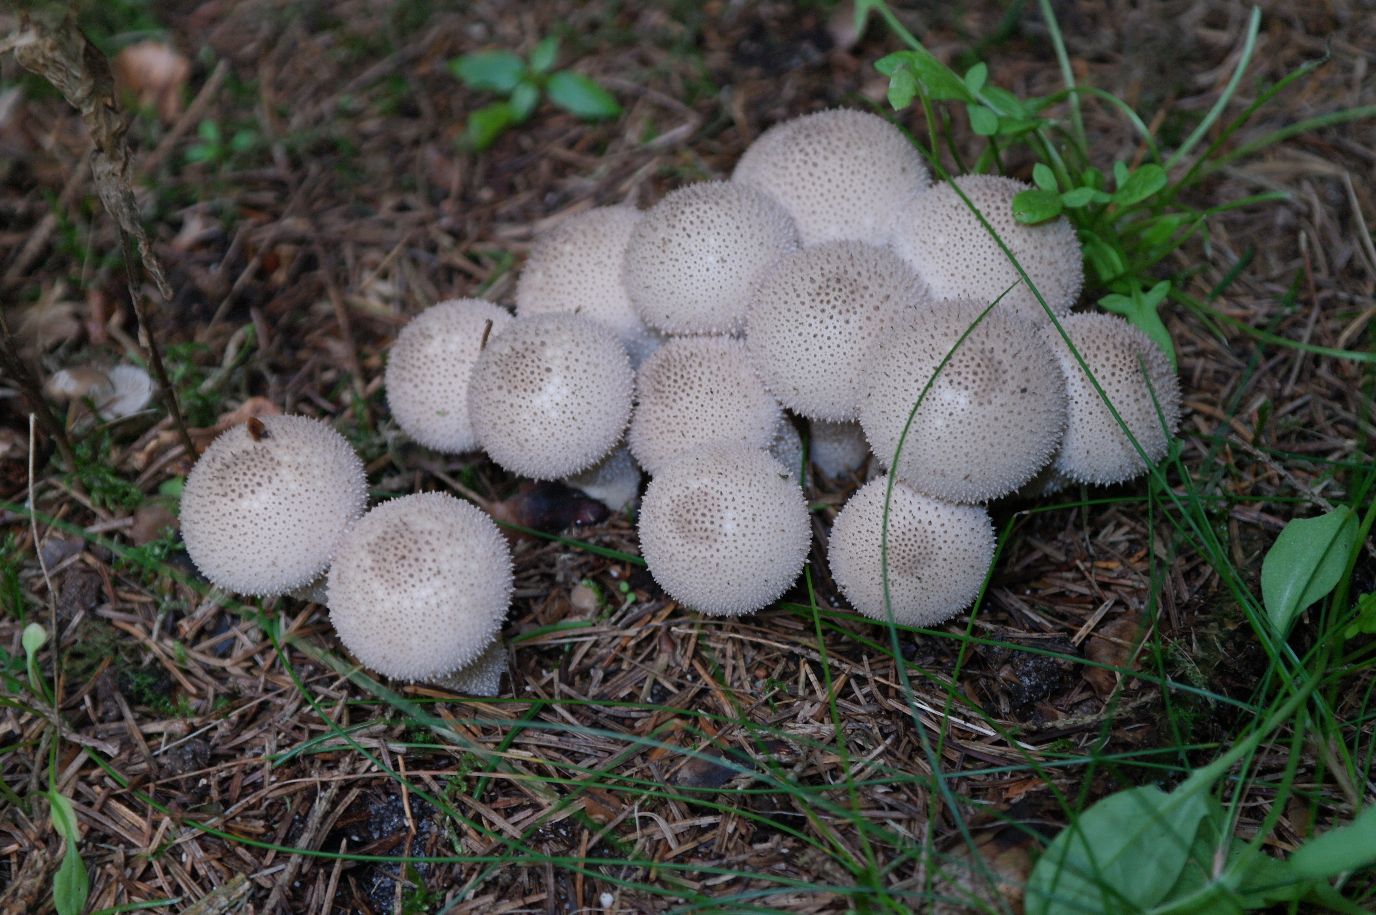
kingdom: Fungi
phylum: Basidiomycota
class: Agaricomycetes
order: Agaricales
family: Lycoperdaceae
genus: Lycoperdon
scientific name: Lycoperdon perlatum
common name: krystal-støvbold
